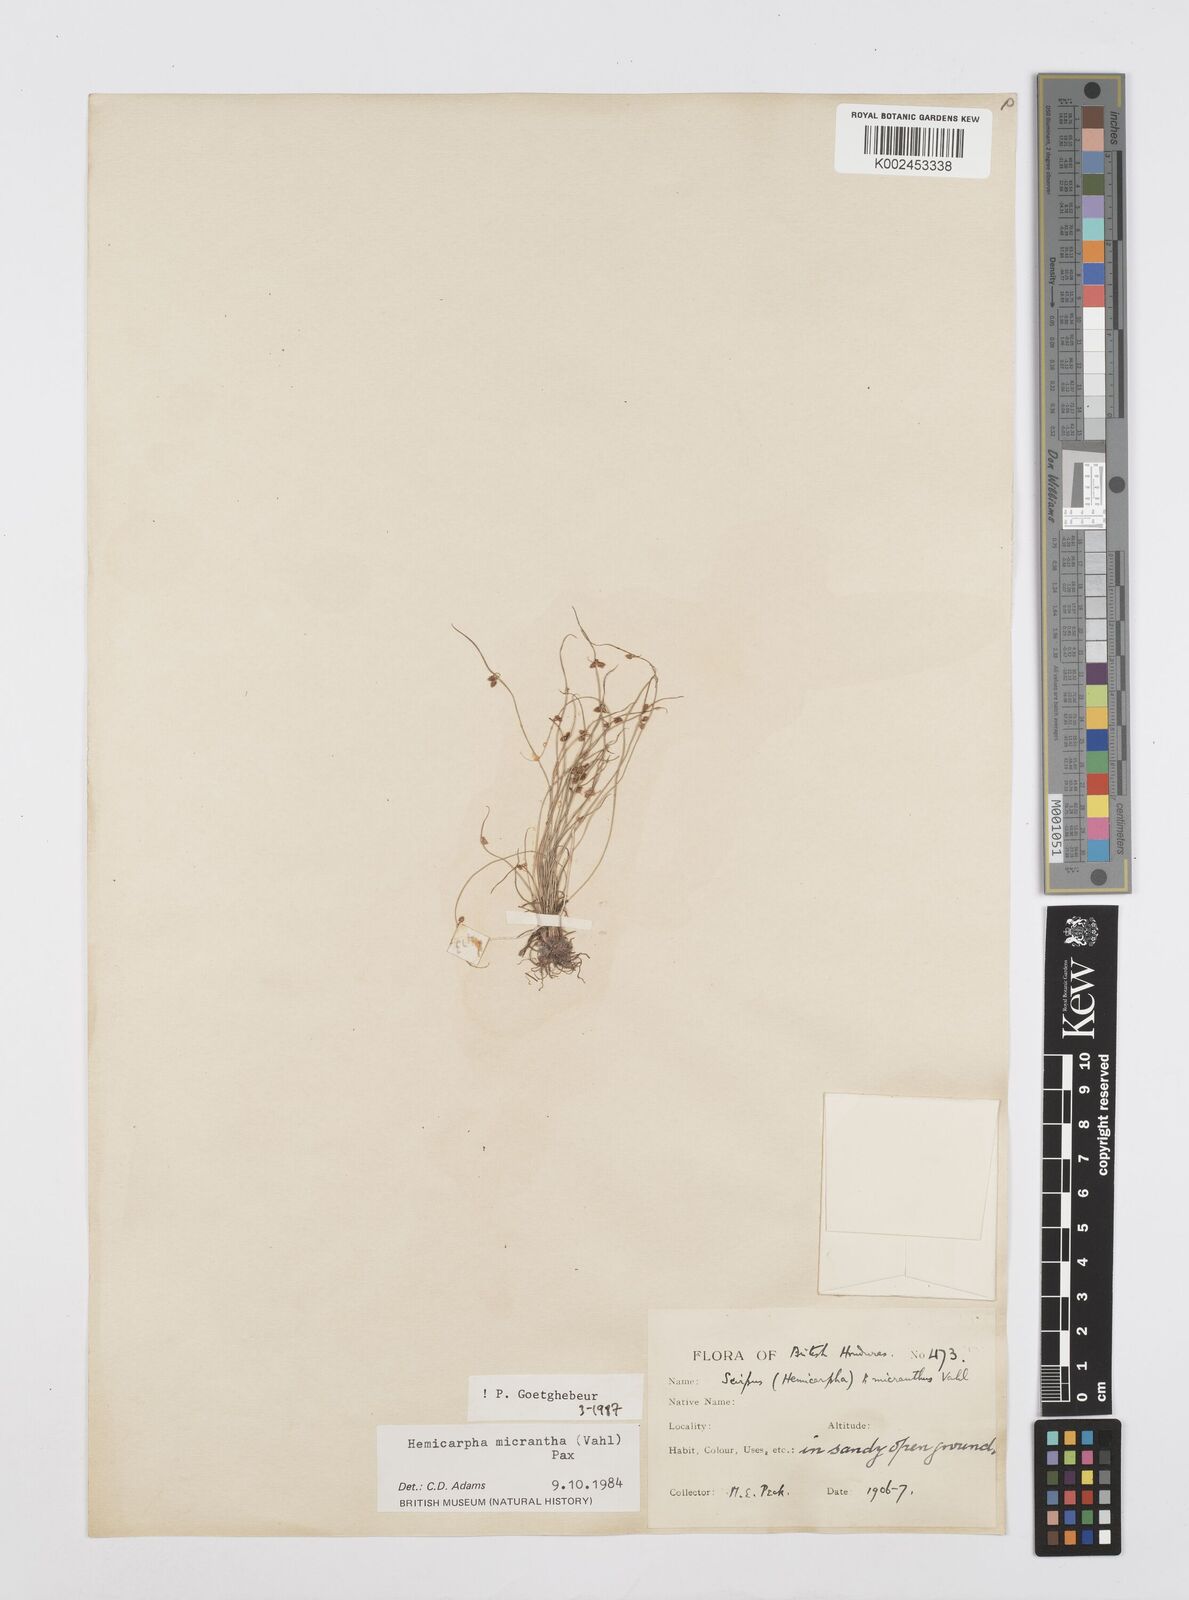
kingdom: Plantae
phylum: Tracheophyta
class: Liliopsida
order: Poales
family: Cyperaceae
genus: Cyperus
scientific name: Cyperus
